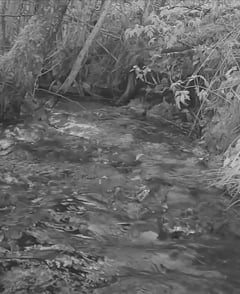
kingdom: Animalia
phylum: Chordata
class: Aves
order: Passeriformes
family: Cinclidae
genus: Cinclus
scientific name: Cinclus cinclus
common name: White-throated dipper
